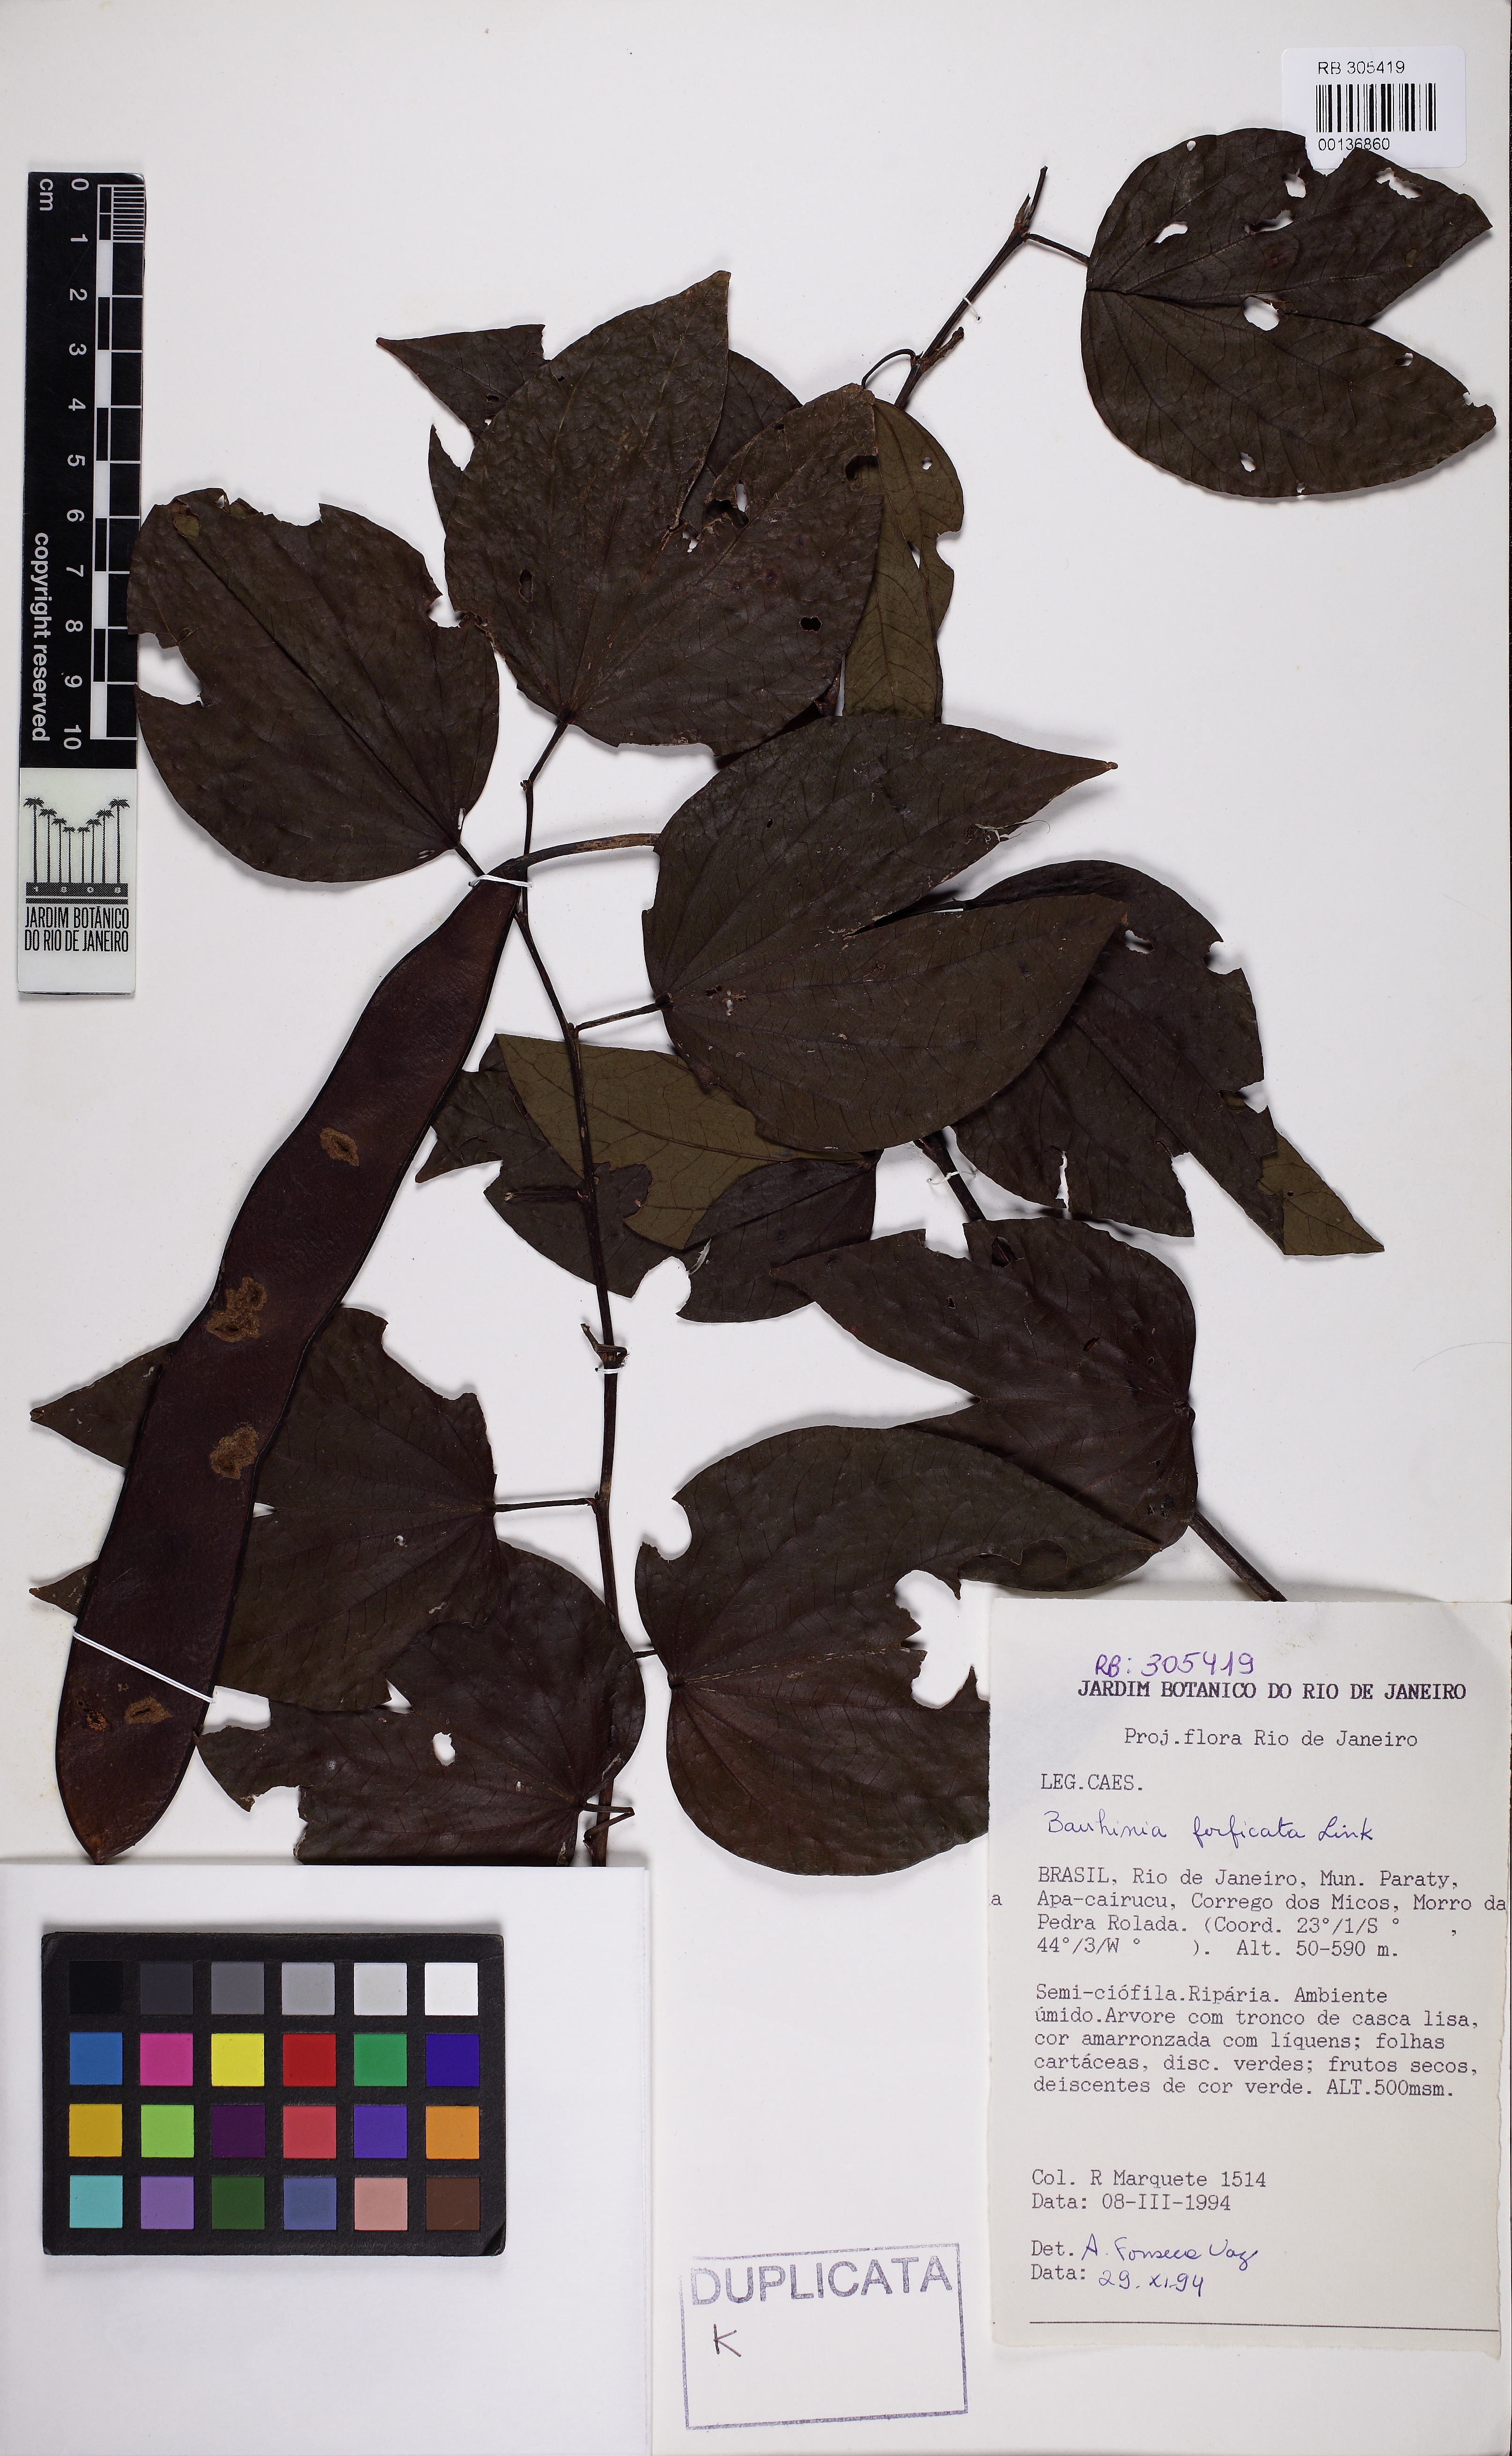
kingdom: Plantae
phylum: Tracheophyta
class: Magnoliopsida
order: Fabales
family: Fabaceae
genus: Bauhinia
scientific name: Bauhinia forficata
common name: Orchid tree
